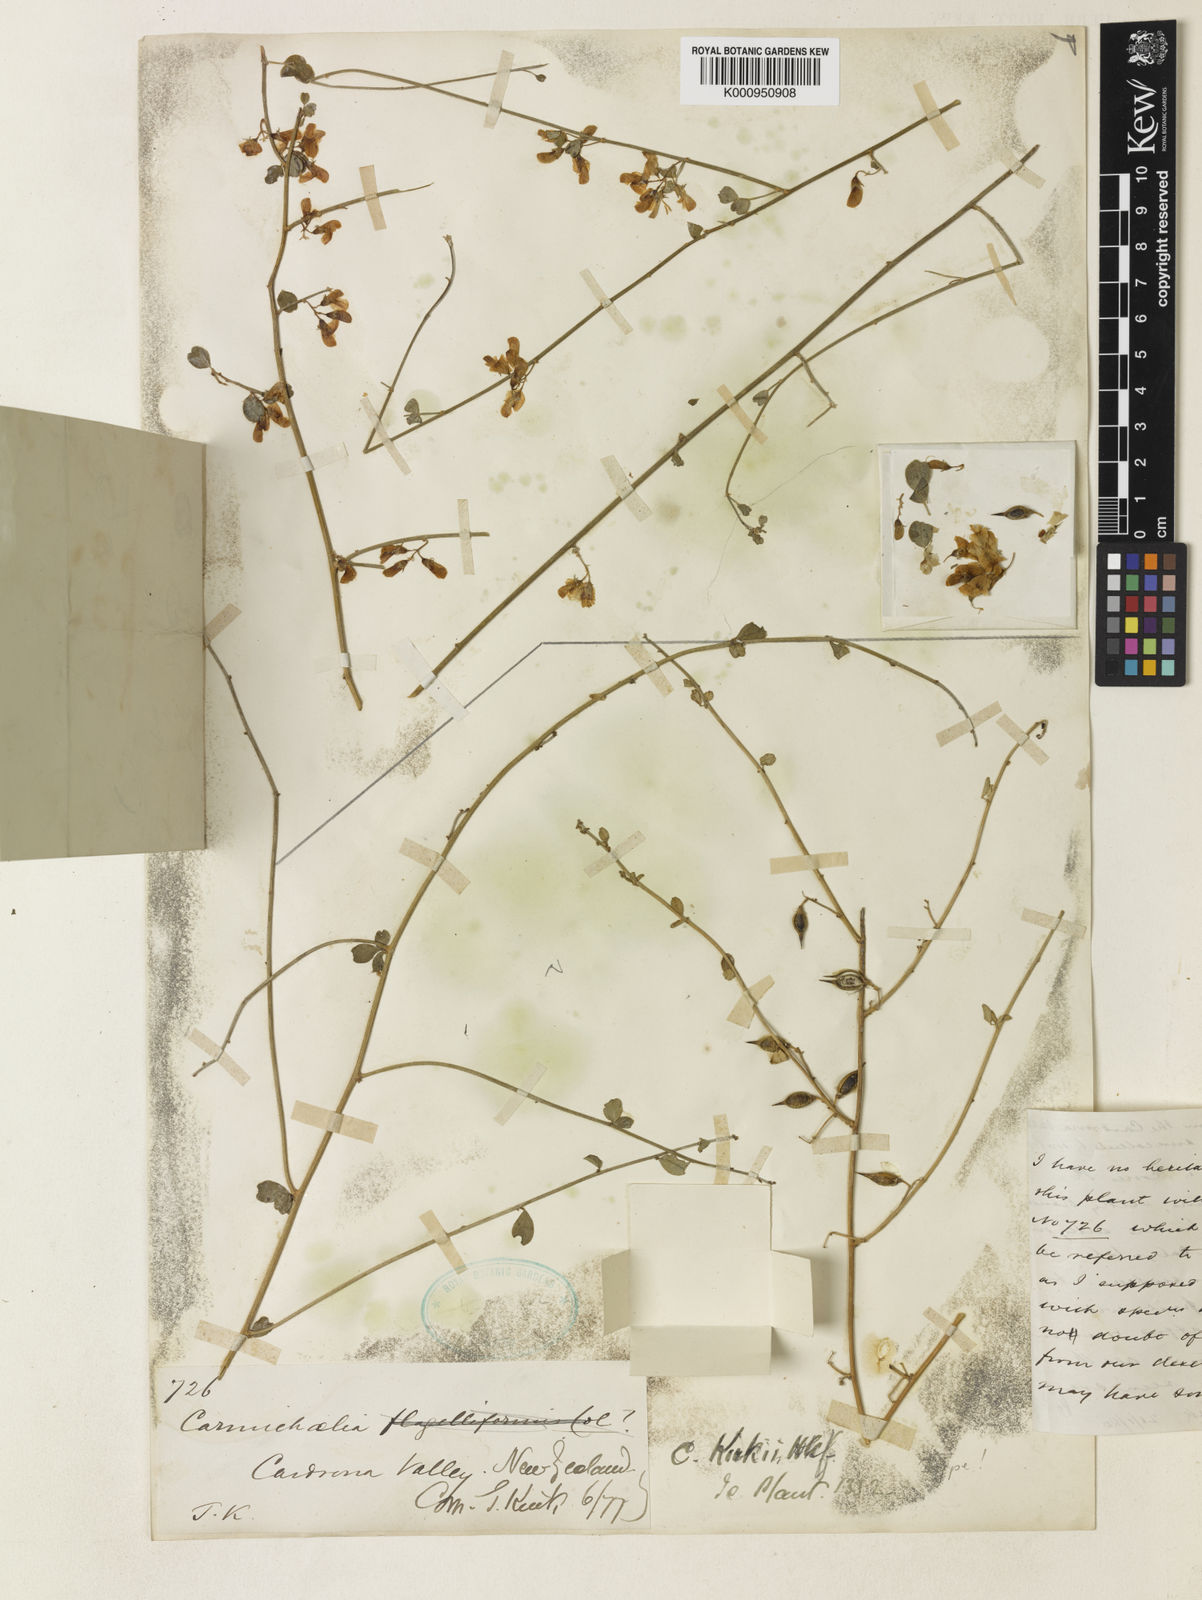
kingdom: Plantae
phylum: Tracheophyta
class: Magnoliopsida
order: Fabales
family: Fabaceae
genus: Carmichaelia
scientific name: Carmichaelia kirkii
